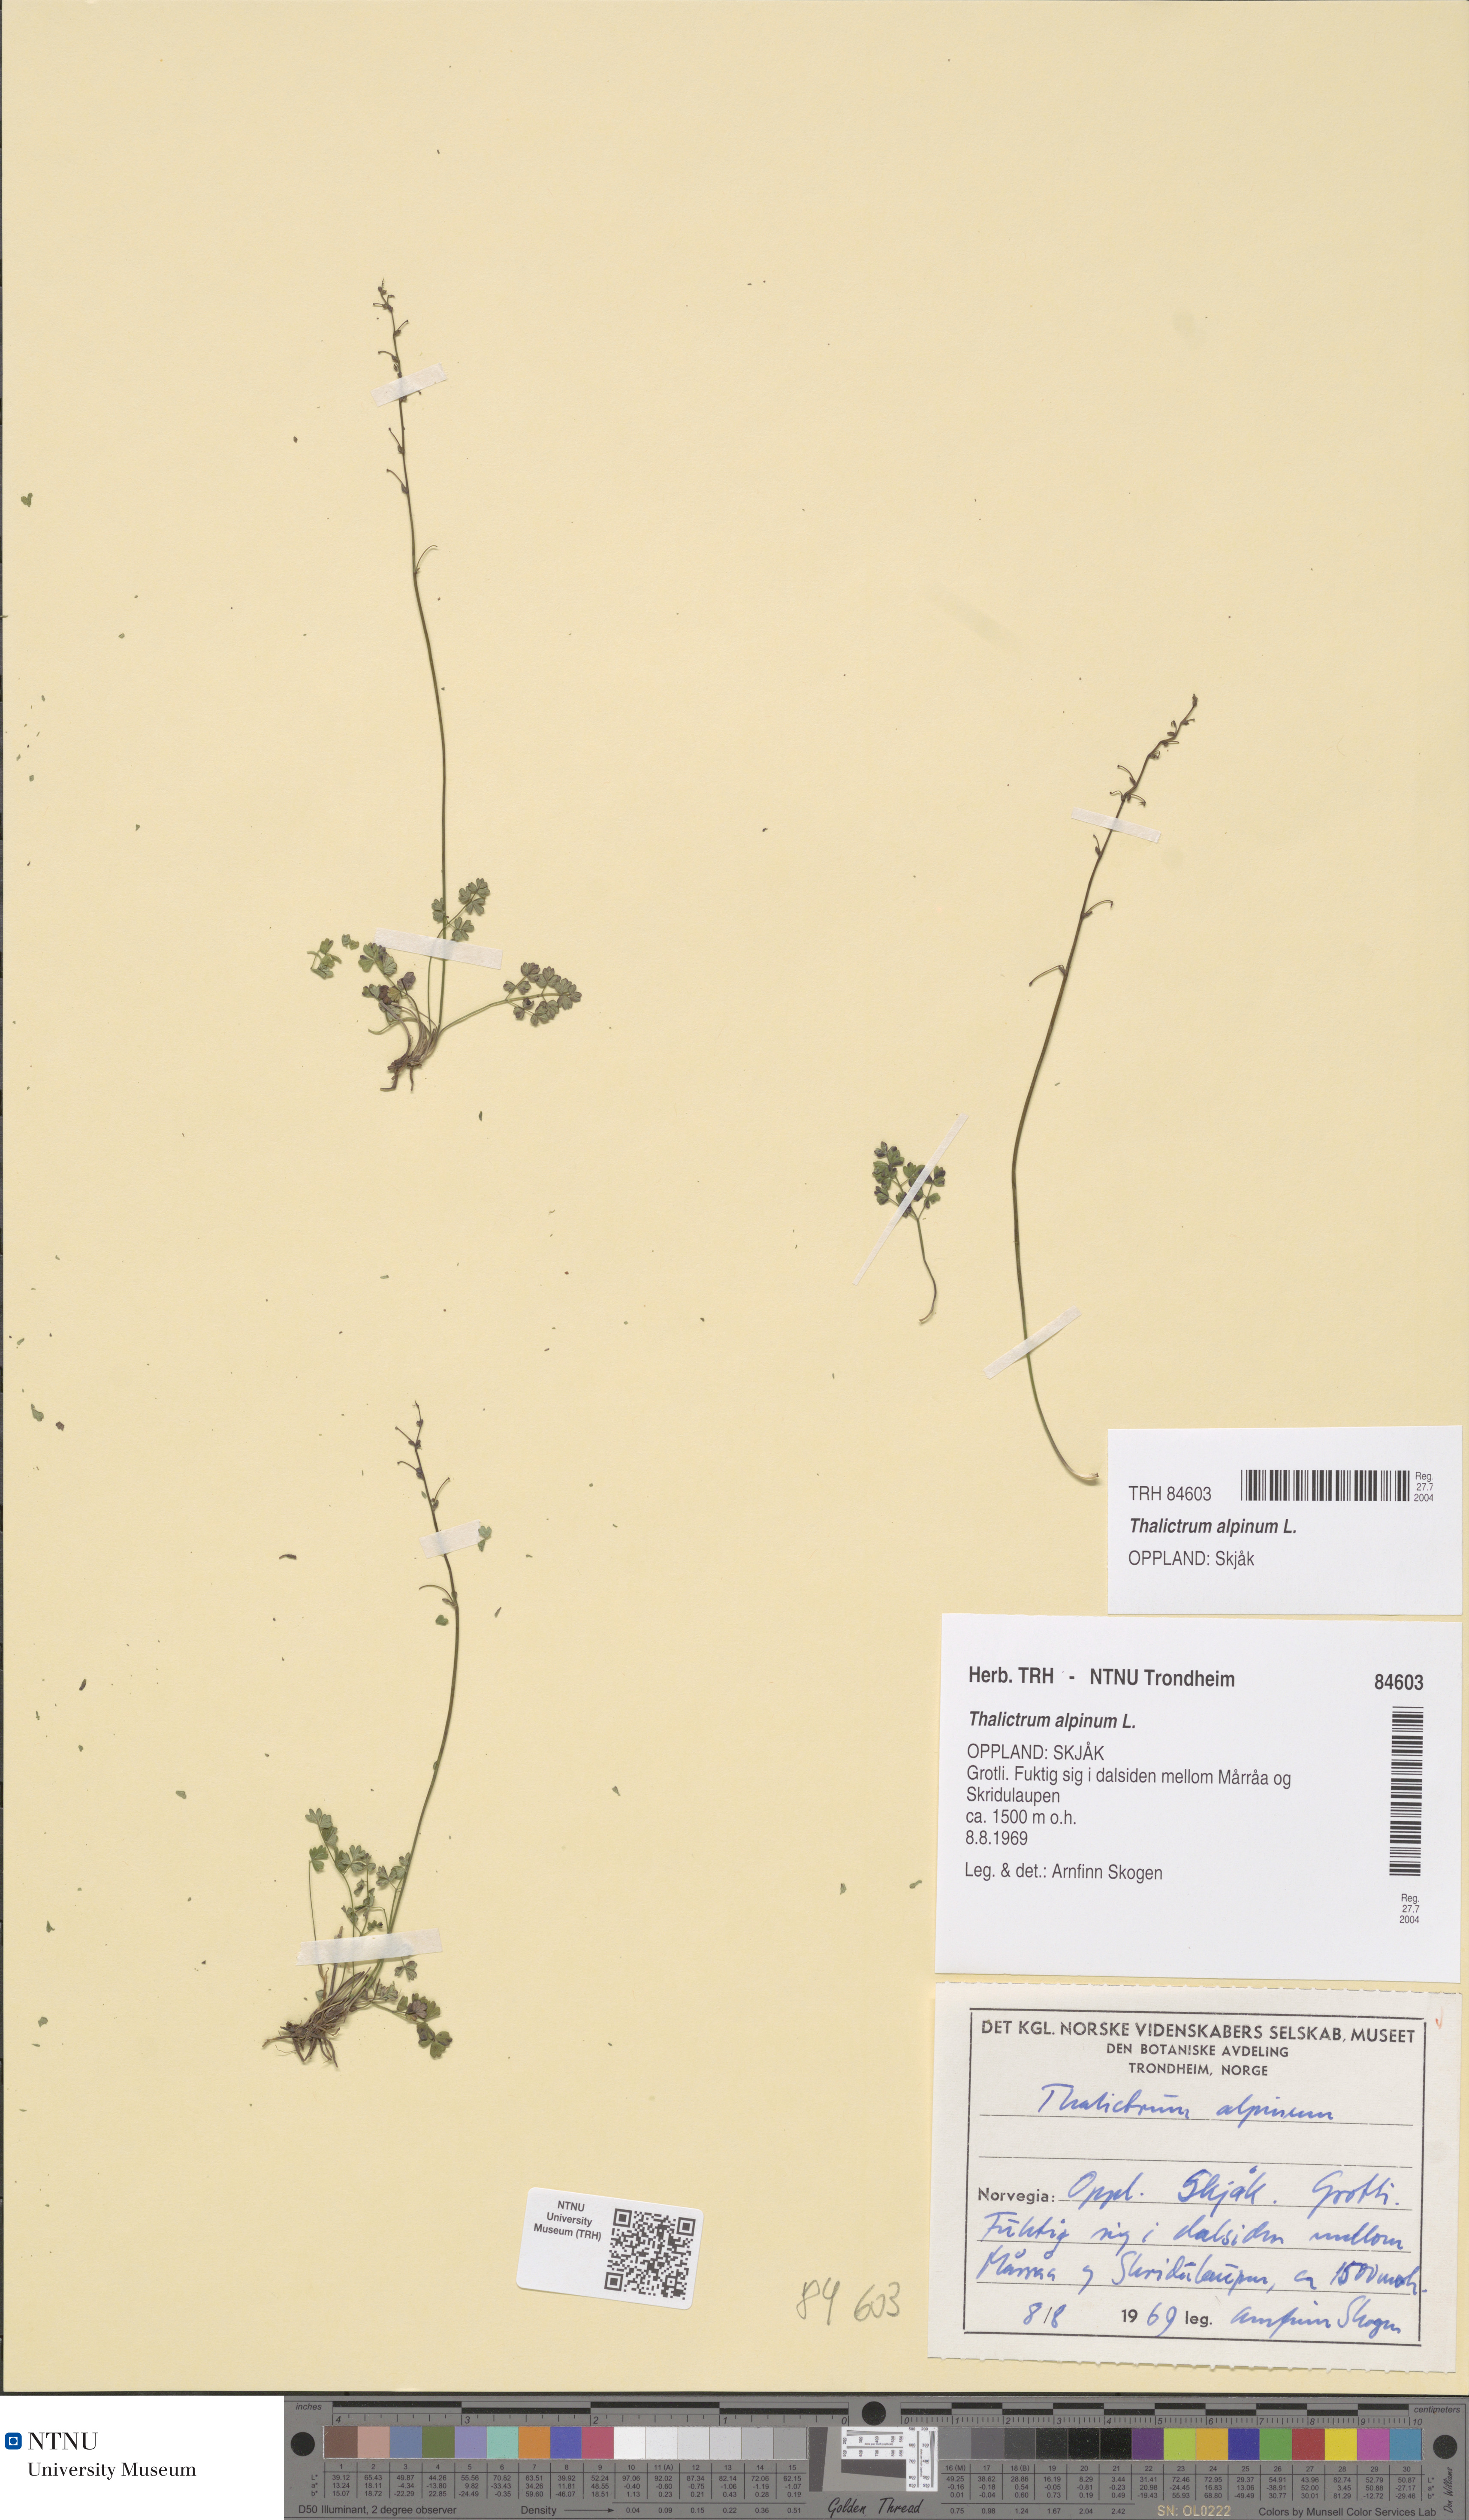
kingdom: Plantae
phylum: Tracheophyta
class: Magnoliopsida
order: Ranunculales
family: Ranunculaceae
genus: Thalictrum
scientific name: Thalictrum alpinum
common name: Alpine meadow-rue
